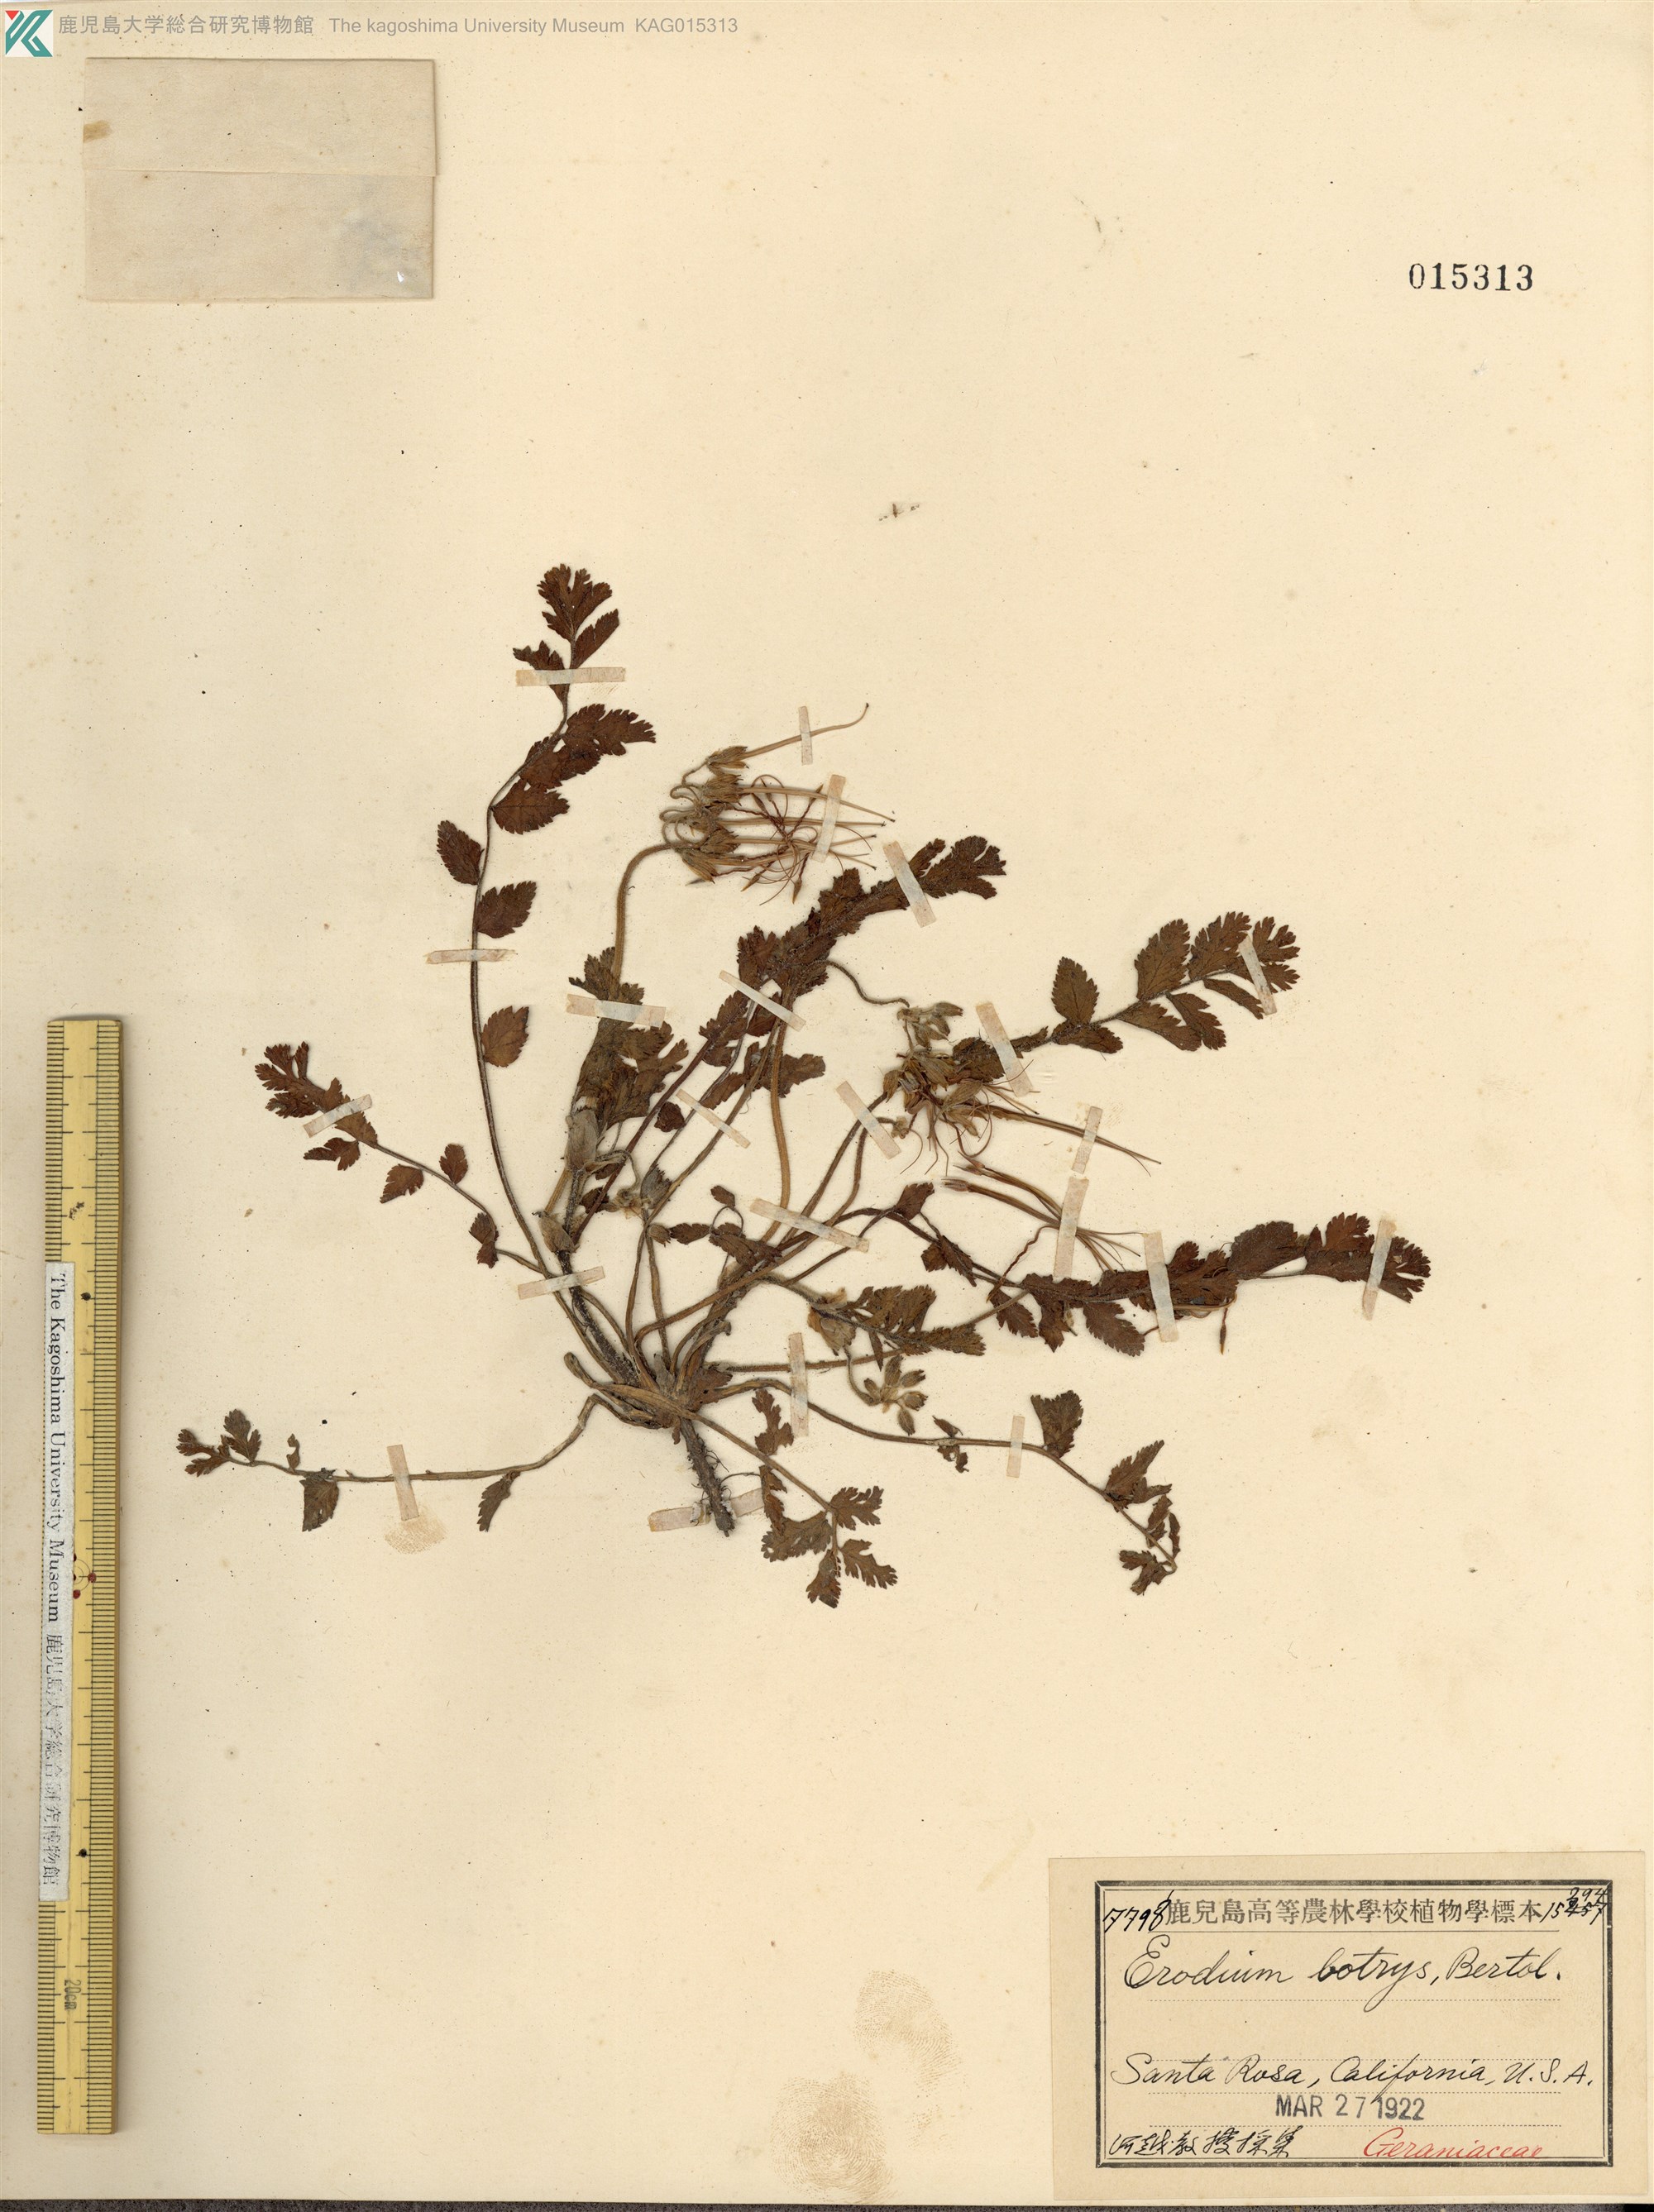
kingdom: Plantae
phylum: Tracheophyta
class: Magnoliopsida
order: Geraniales
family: Geraniaceae
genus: Erodium
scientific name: Erodium moschatum
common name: Musk stork's-bill
